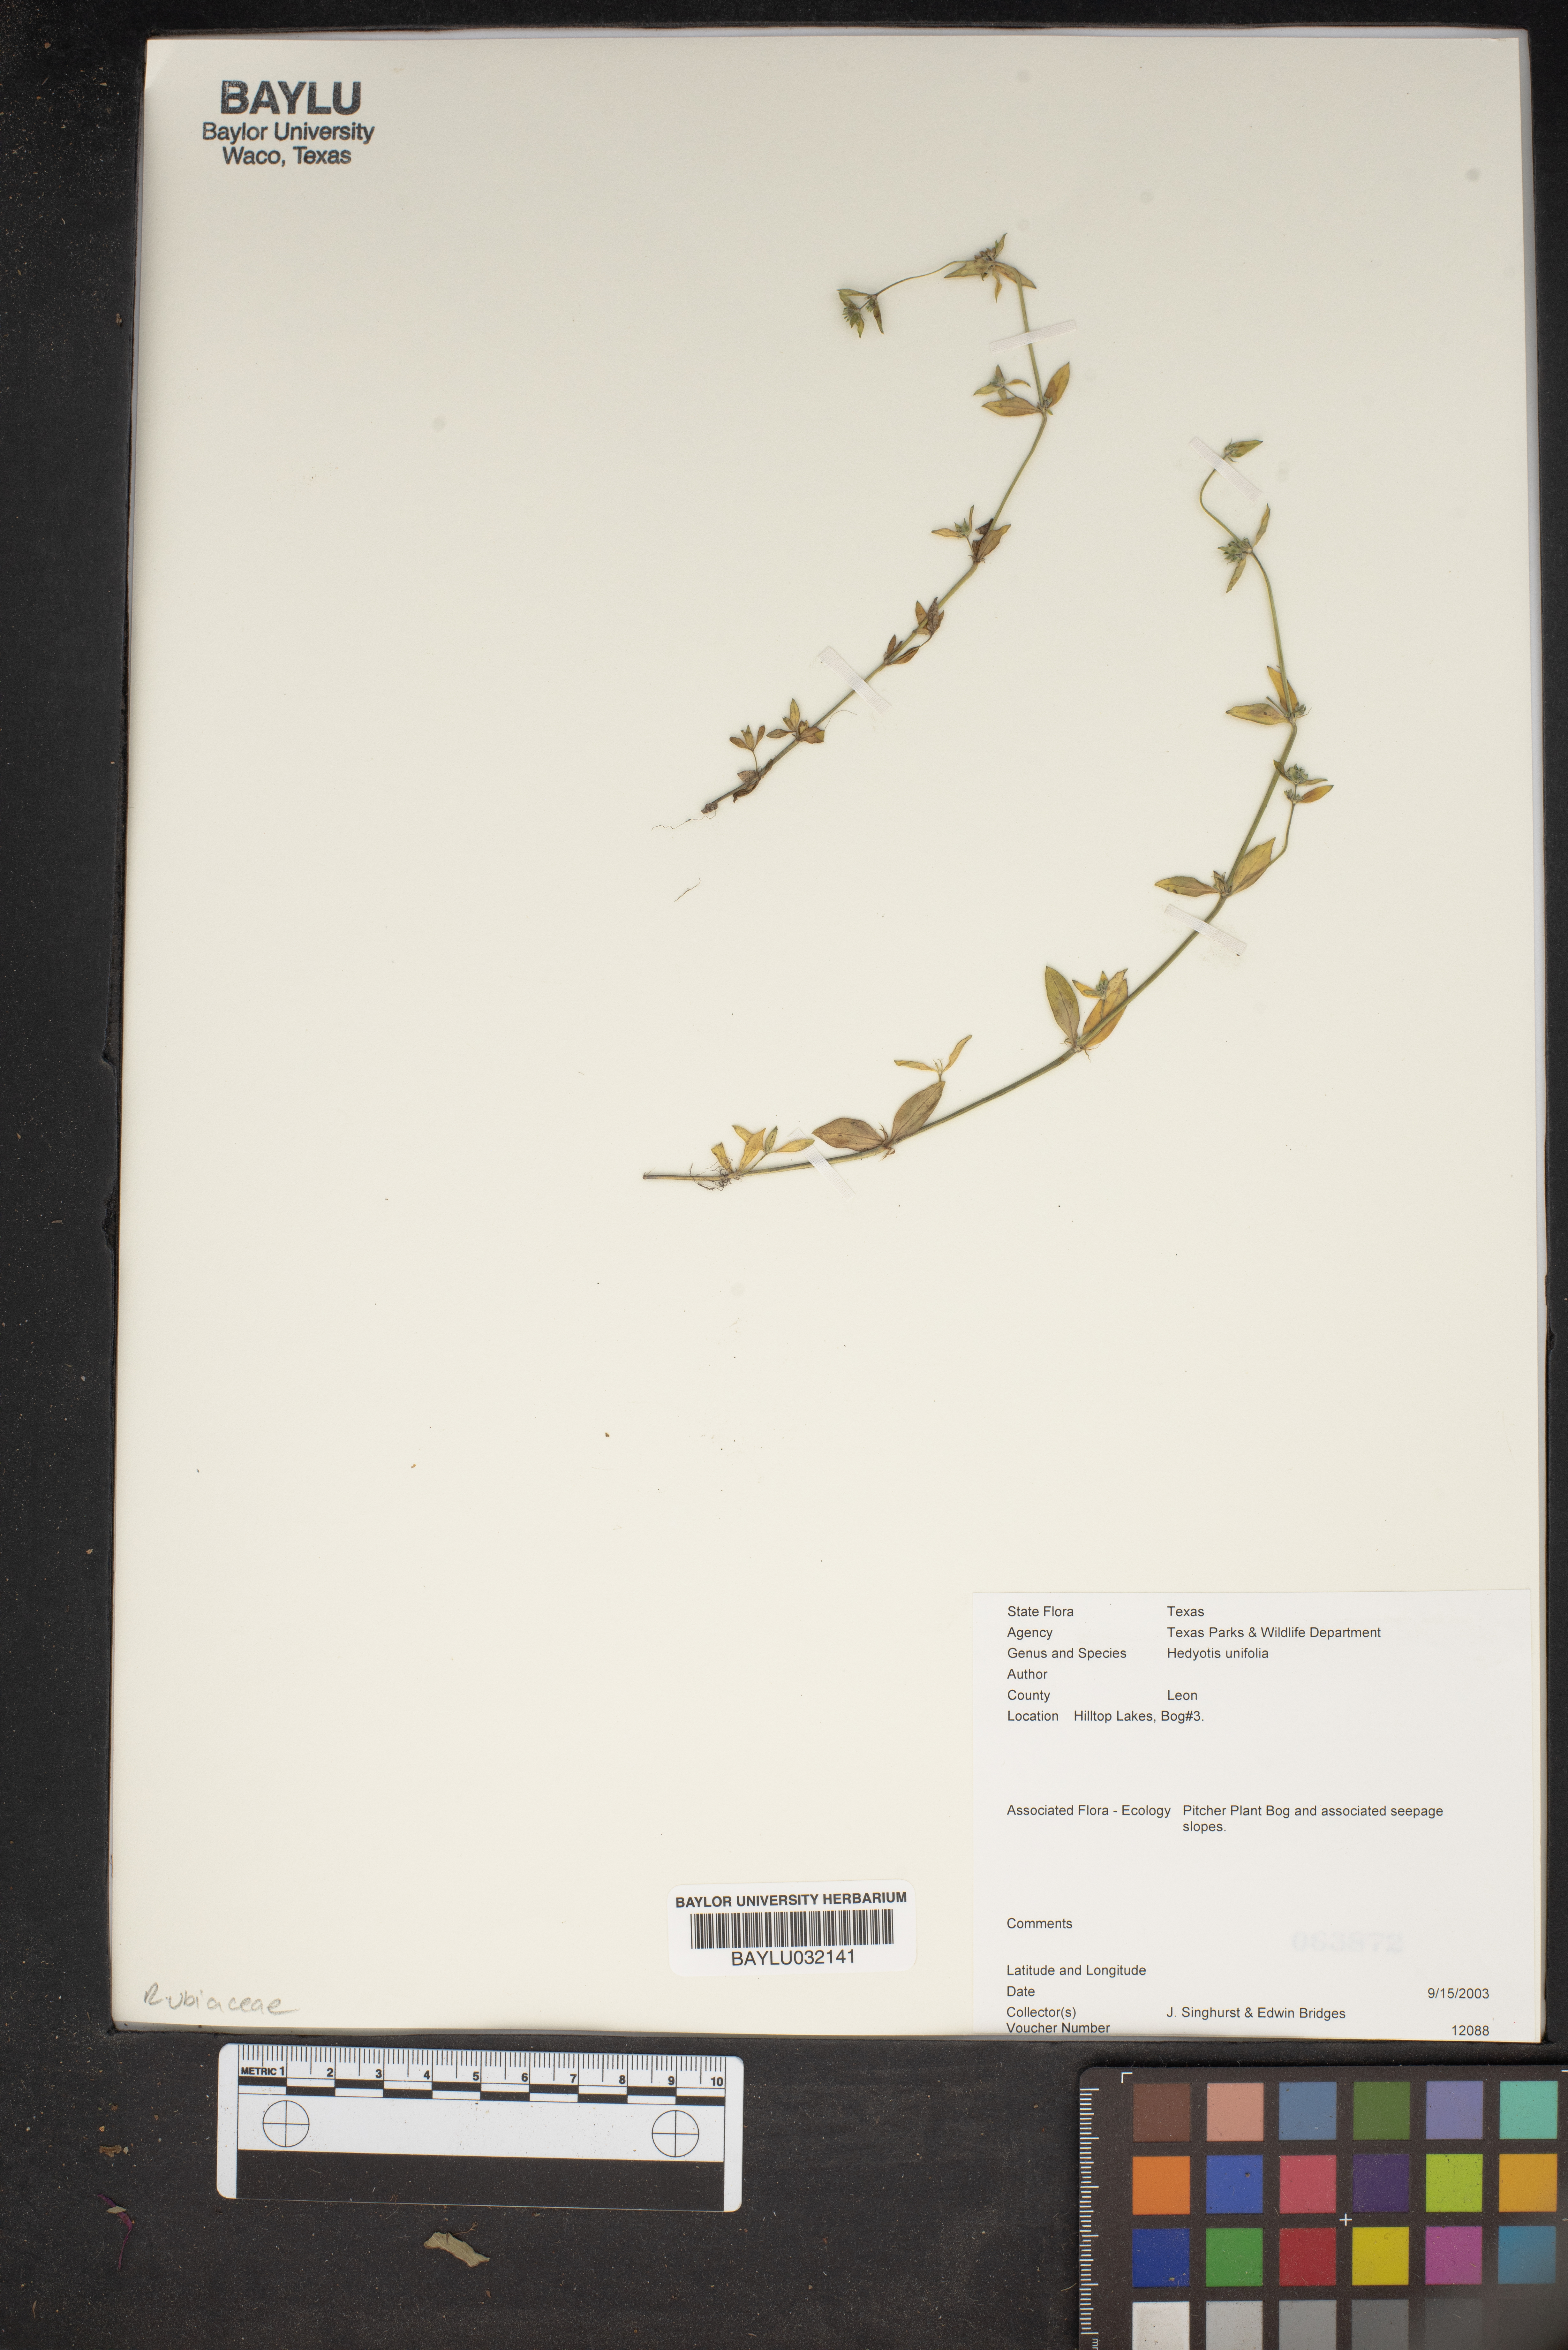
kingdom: Plantae
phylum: Tracheophyta
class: Magnoliopsida
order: Gentianales
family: Rubiaceae
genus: Edrastima
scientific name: Edrastima uniflora
